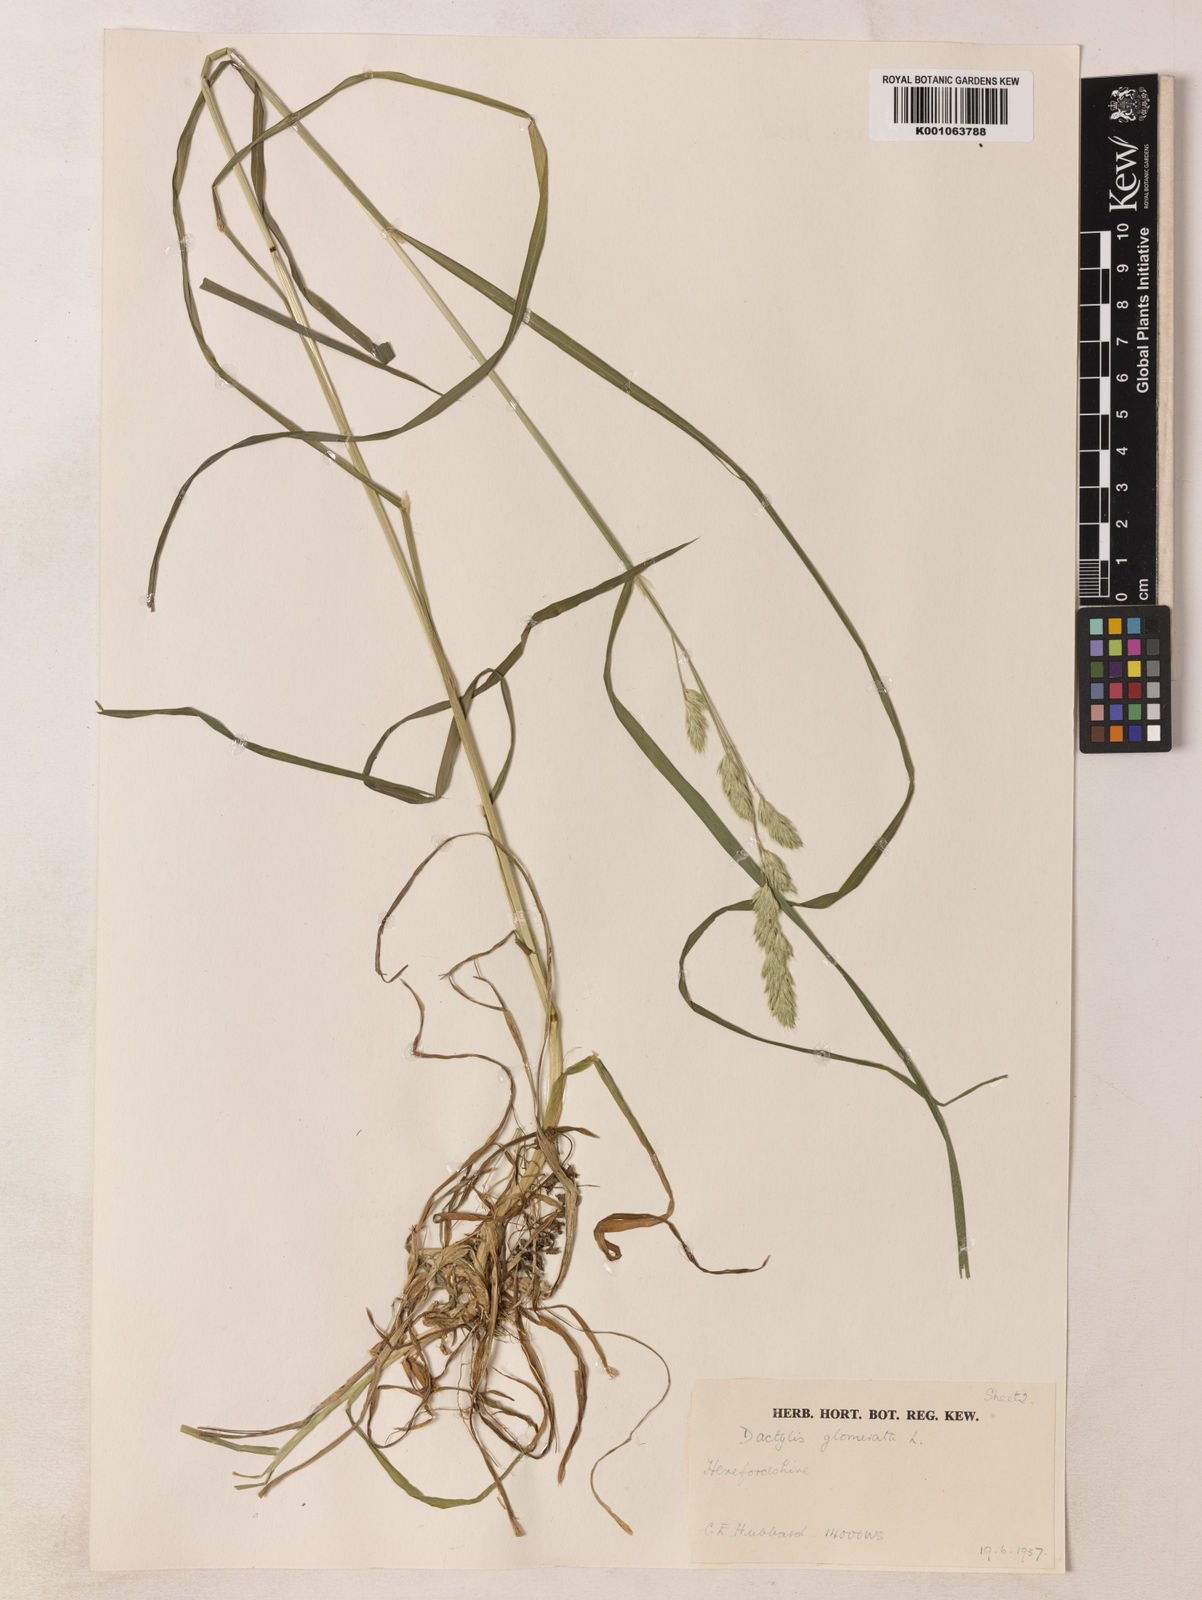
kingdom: Plantae
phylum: Tracheophyta
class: Liliopsida
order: Poales
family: Poaceae
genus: Dactylis
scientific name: Dactylis glomerata
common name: Orchardgrass
